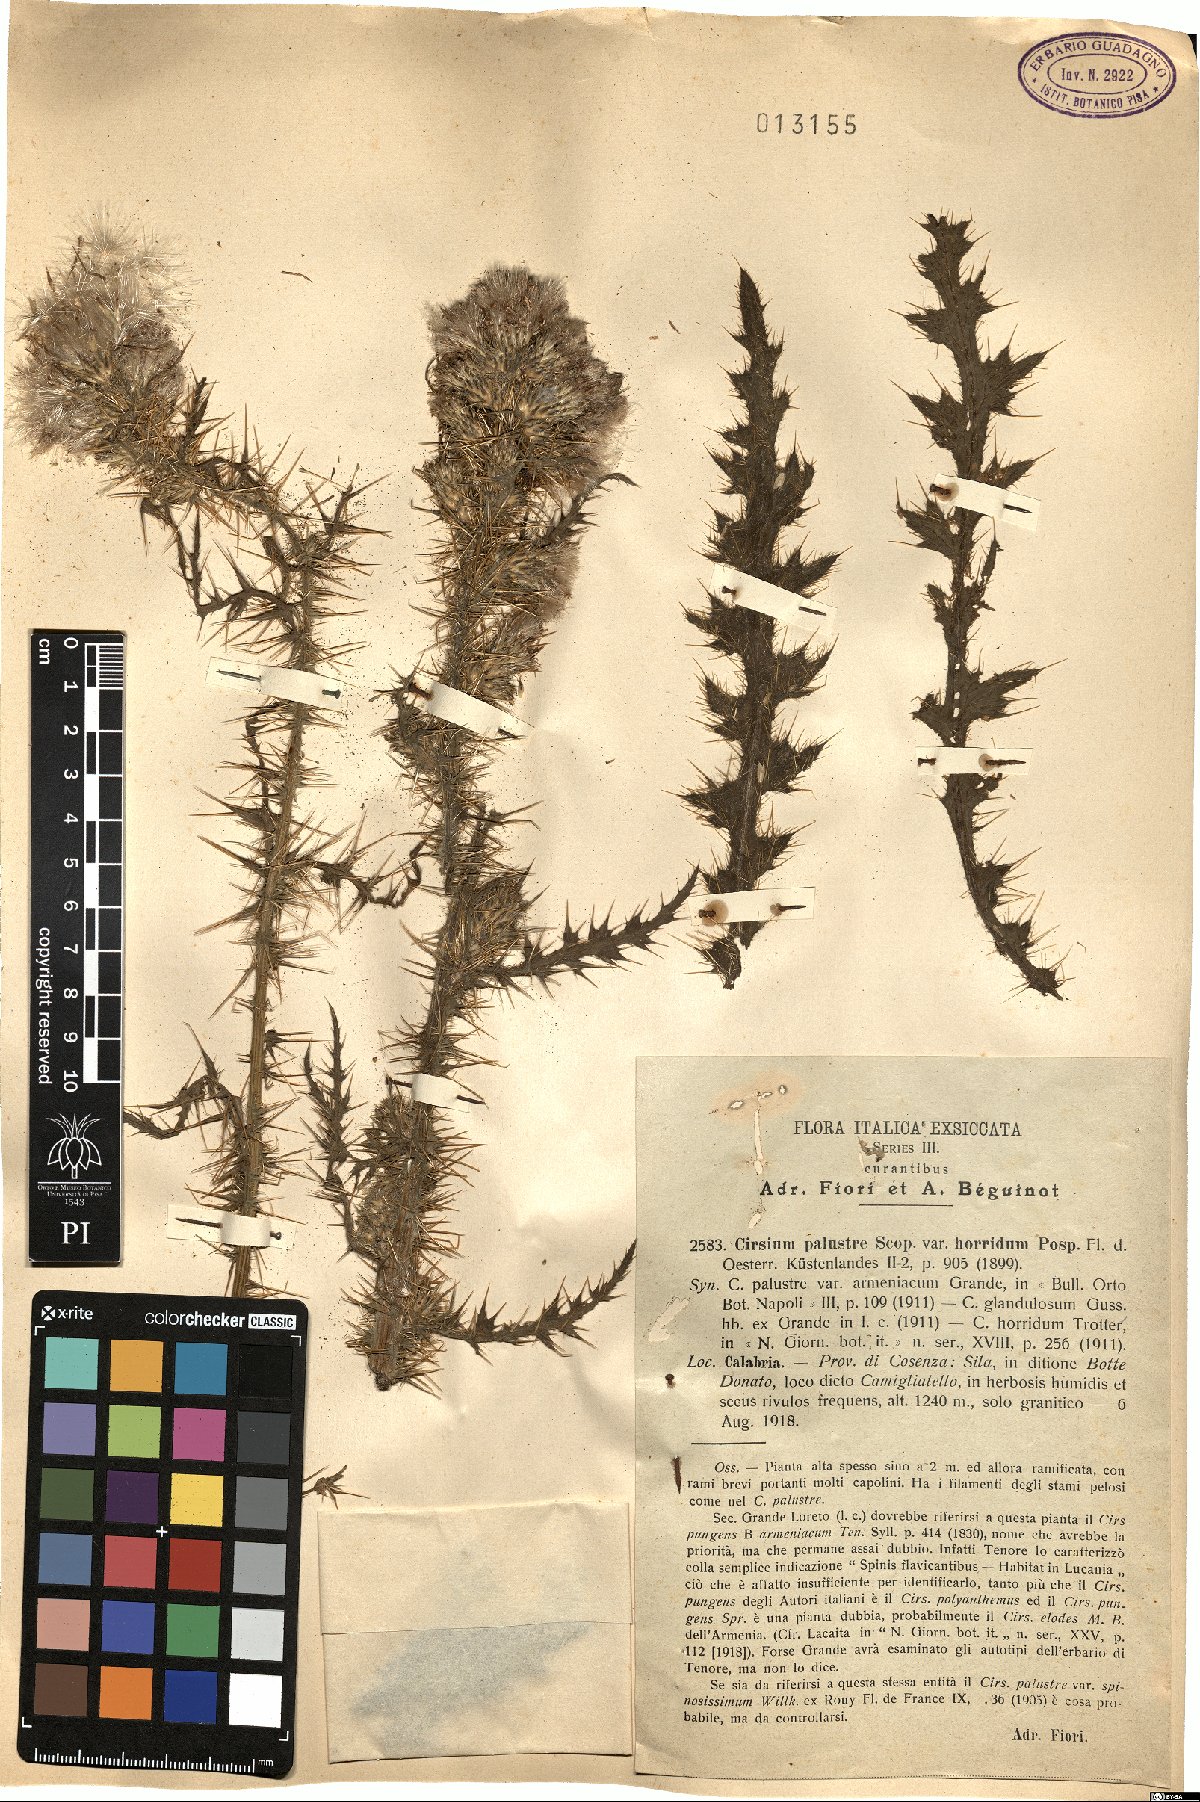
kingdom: Plantae
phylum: Tracheophyta
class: Magnoliopsida
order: Asterales
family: Asteraceae
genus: Cirsium
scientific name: Cirsium palustre
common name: Marsh thistle
